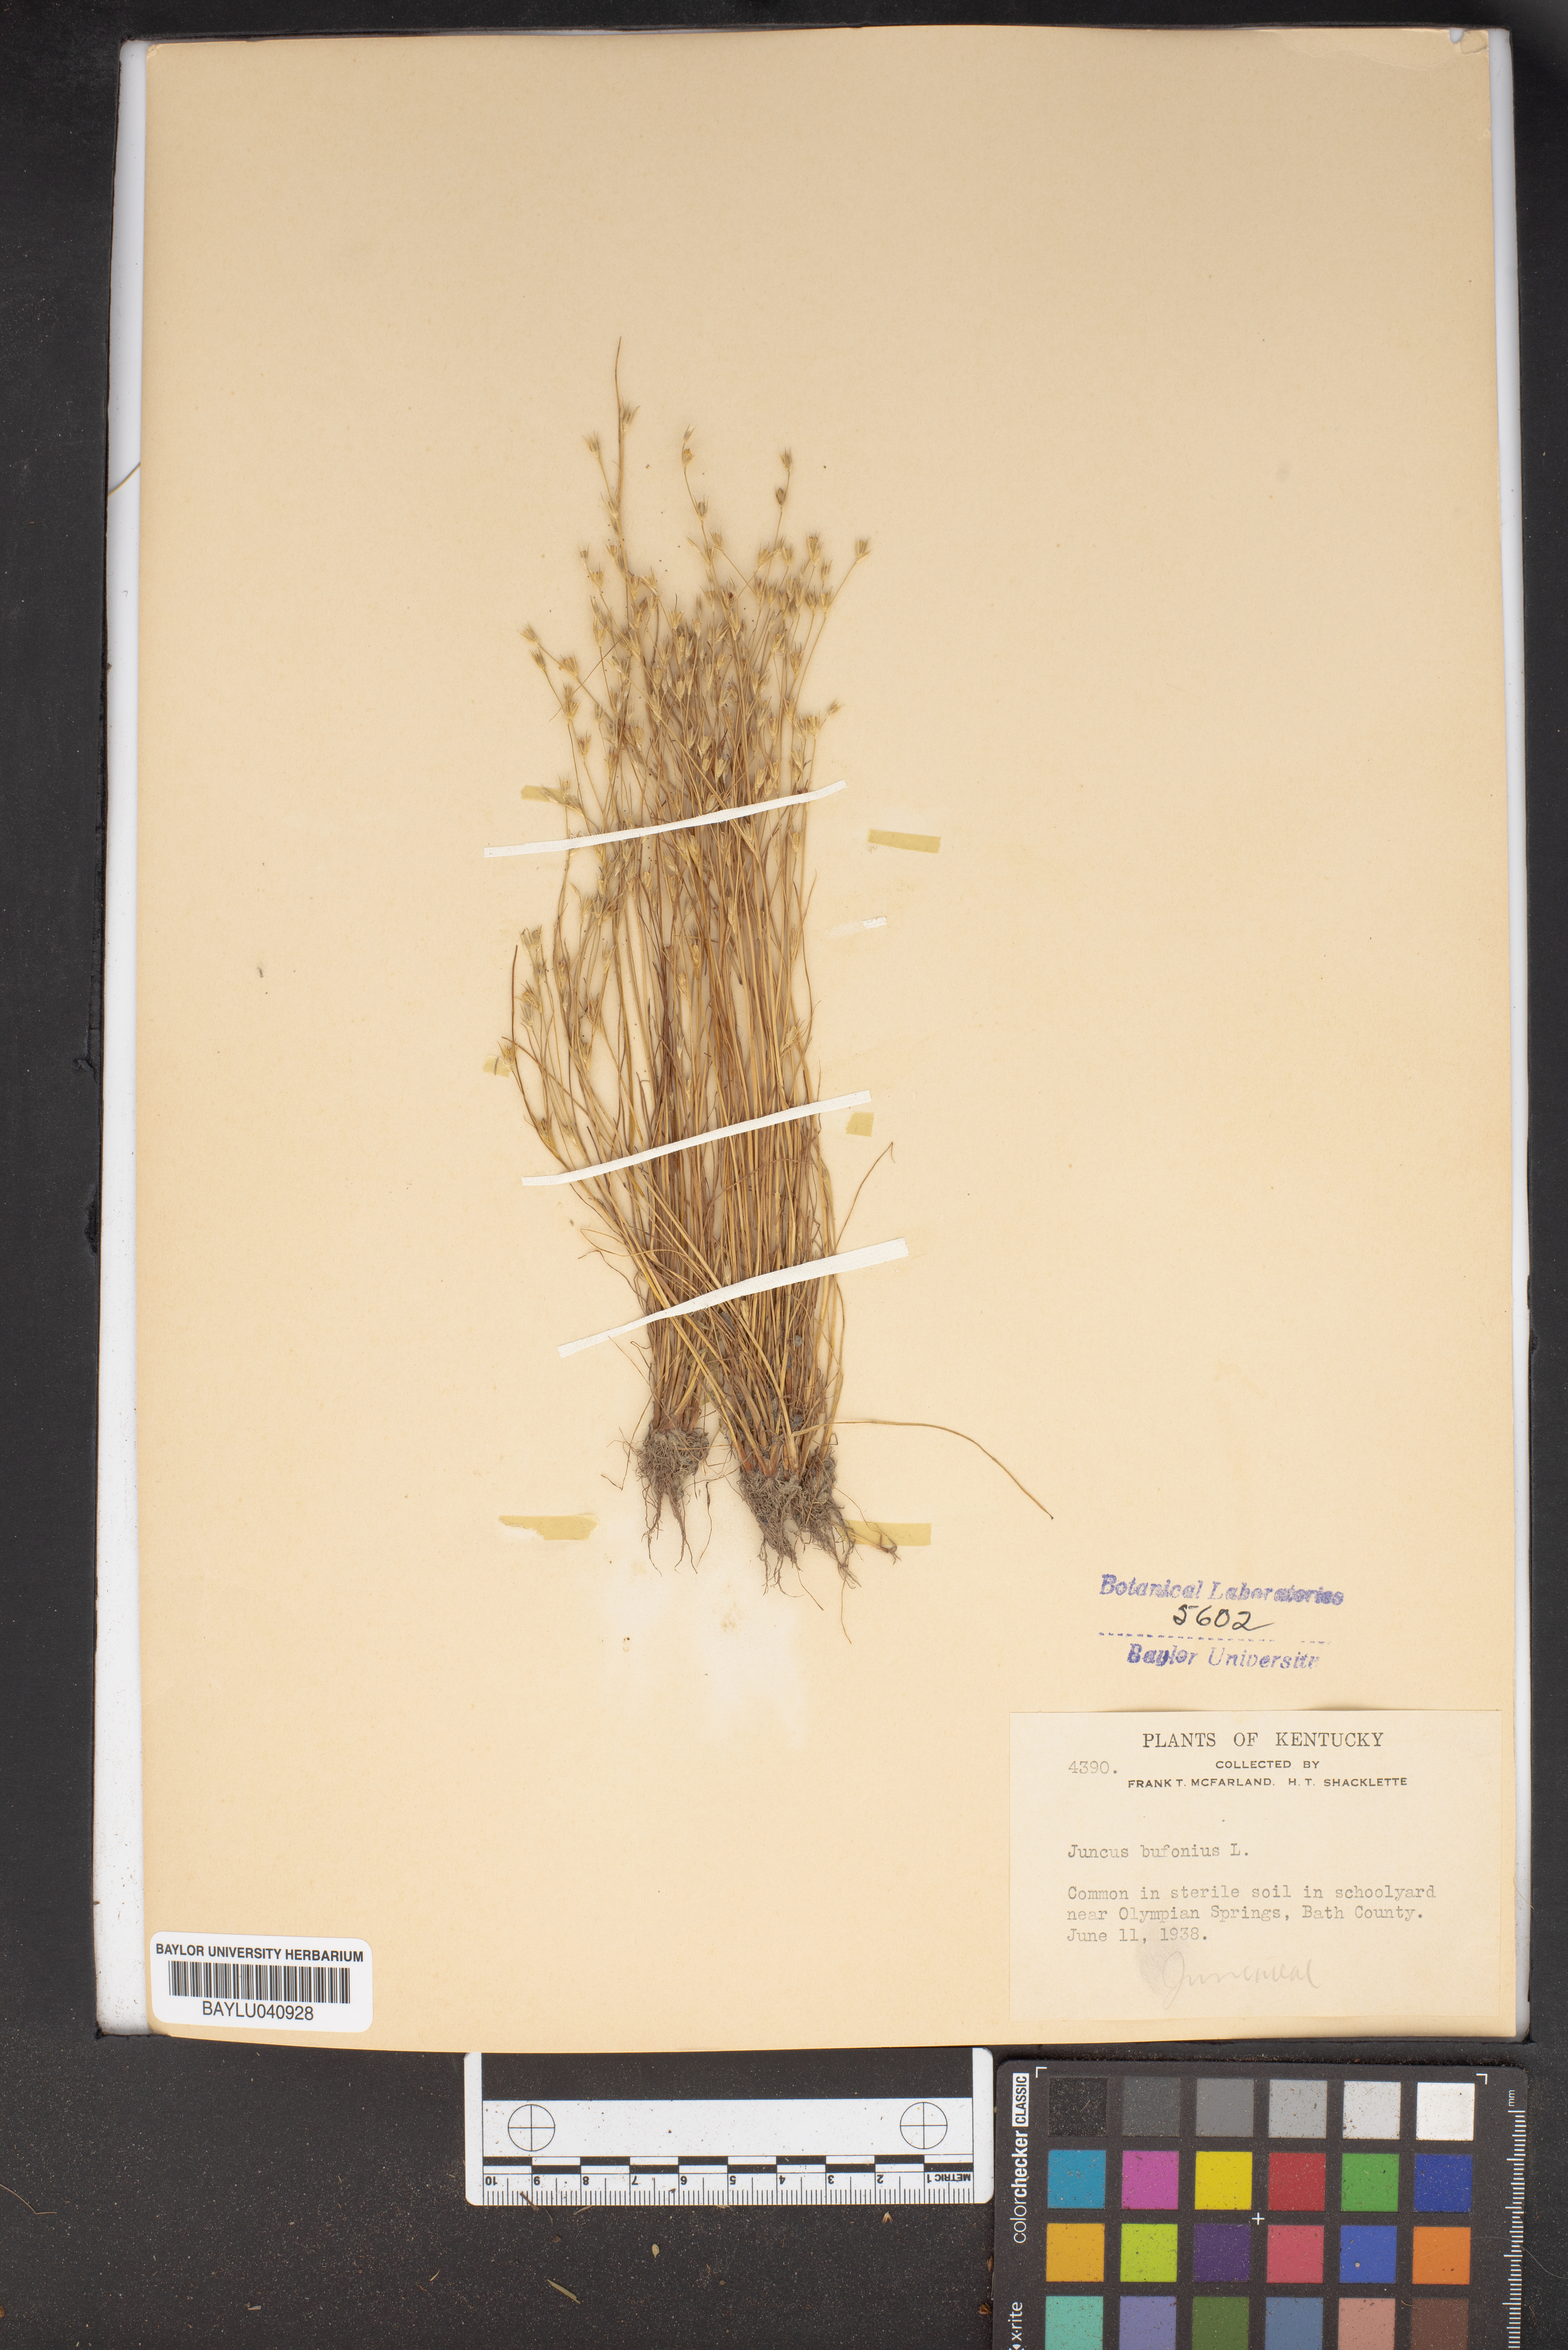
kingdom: Plantae
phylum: Tracheophyta
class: Liliopsida
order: Poales
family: Juncaceae
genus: Juncus
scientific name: Juncus bufonius
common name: Toad rush
